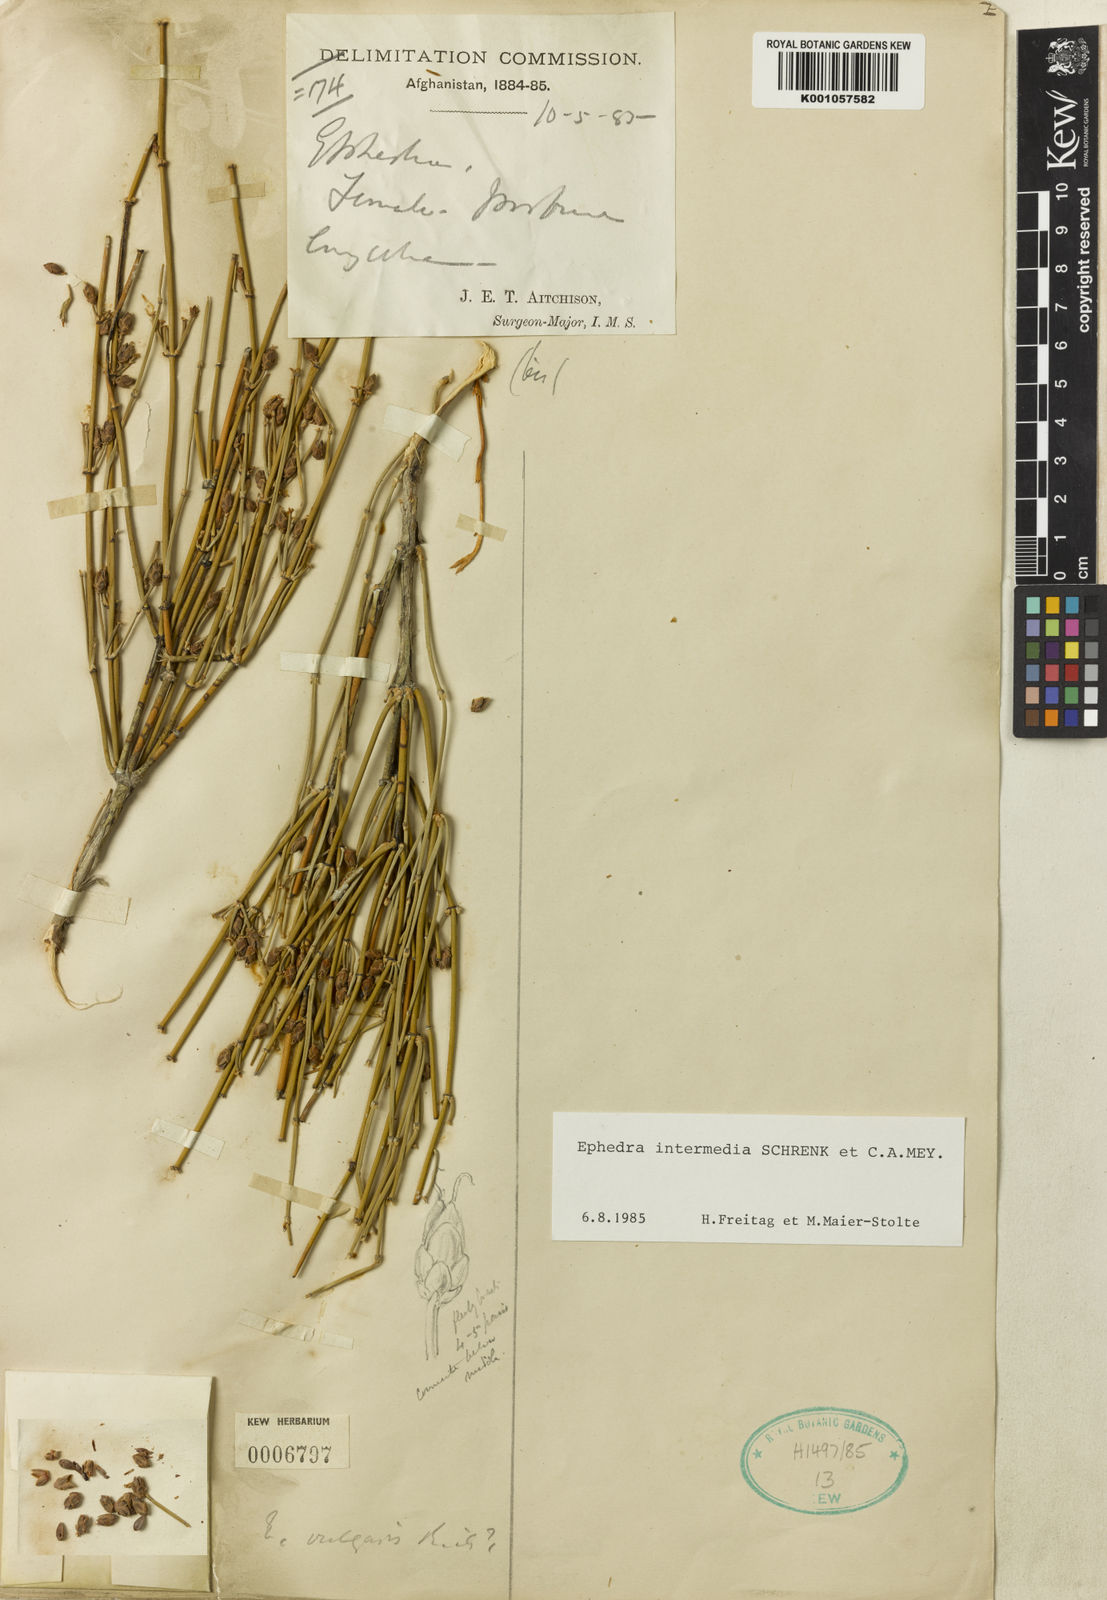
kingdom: Plantae
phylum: Tracheophyta
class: Gnetopsida
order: Ephedrales
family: Ephedraceae
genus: Ephedra
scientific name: Ephedra intermedia
